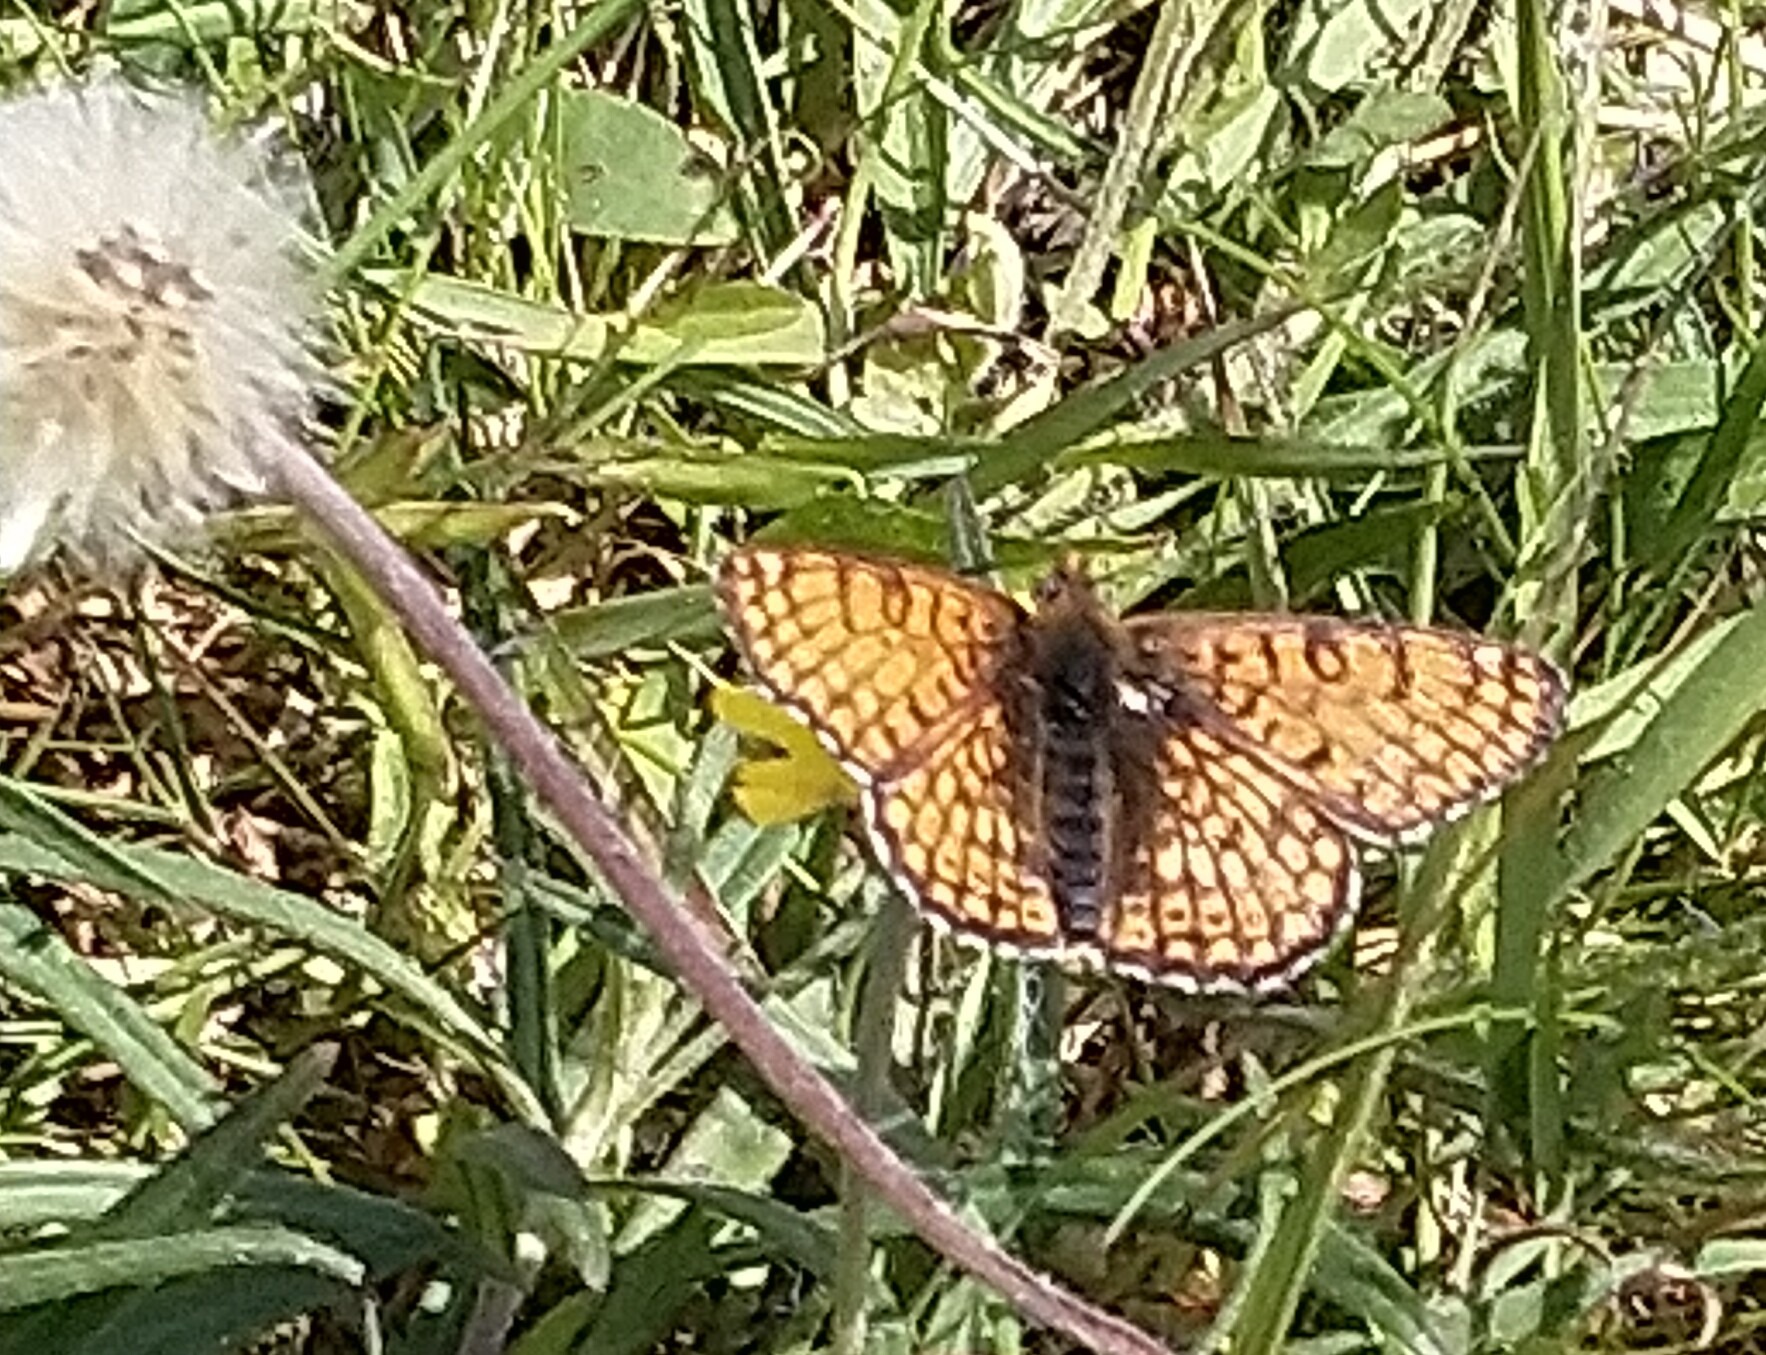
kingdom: Animalia
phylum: Arthropoda
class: Insecta
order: Lepidoptera
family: Nymphalidae
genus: Melitaea
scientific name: Melitaea cinxia
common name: Okkergul pletvinge
